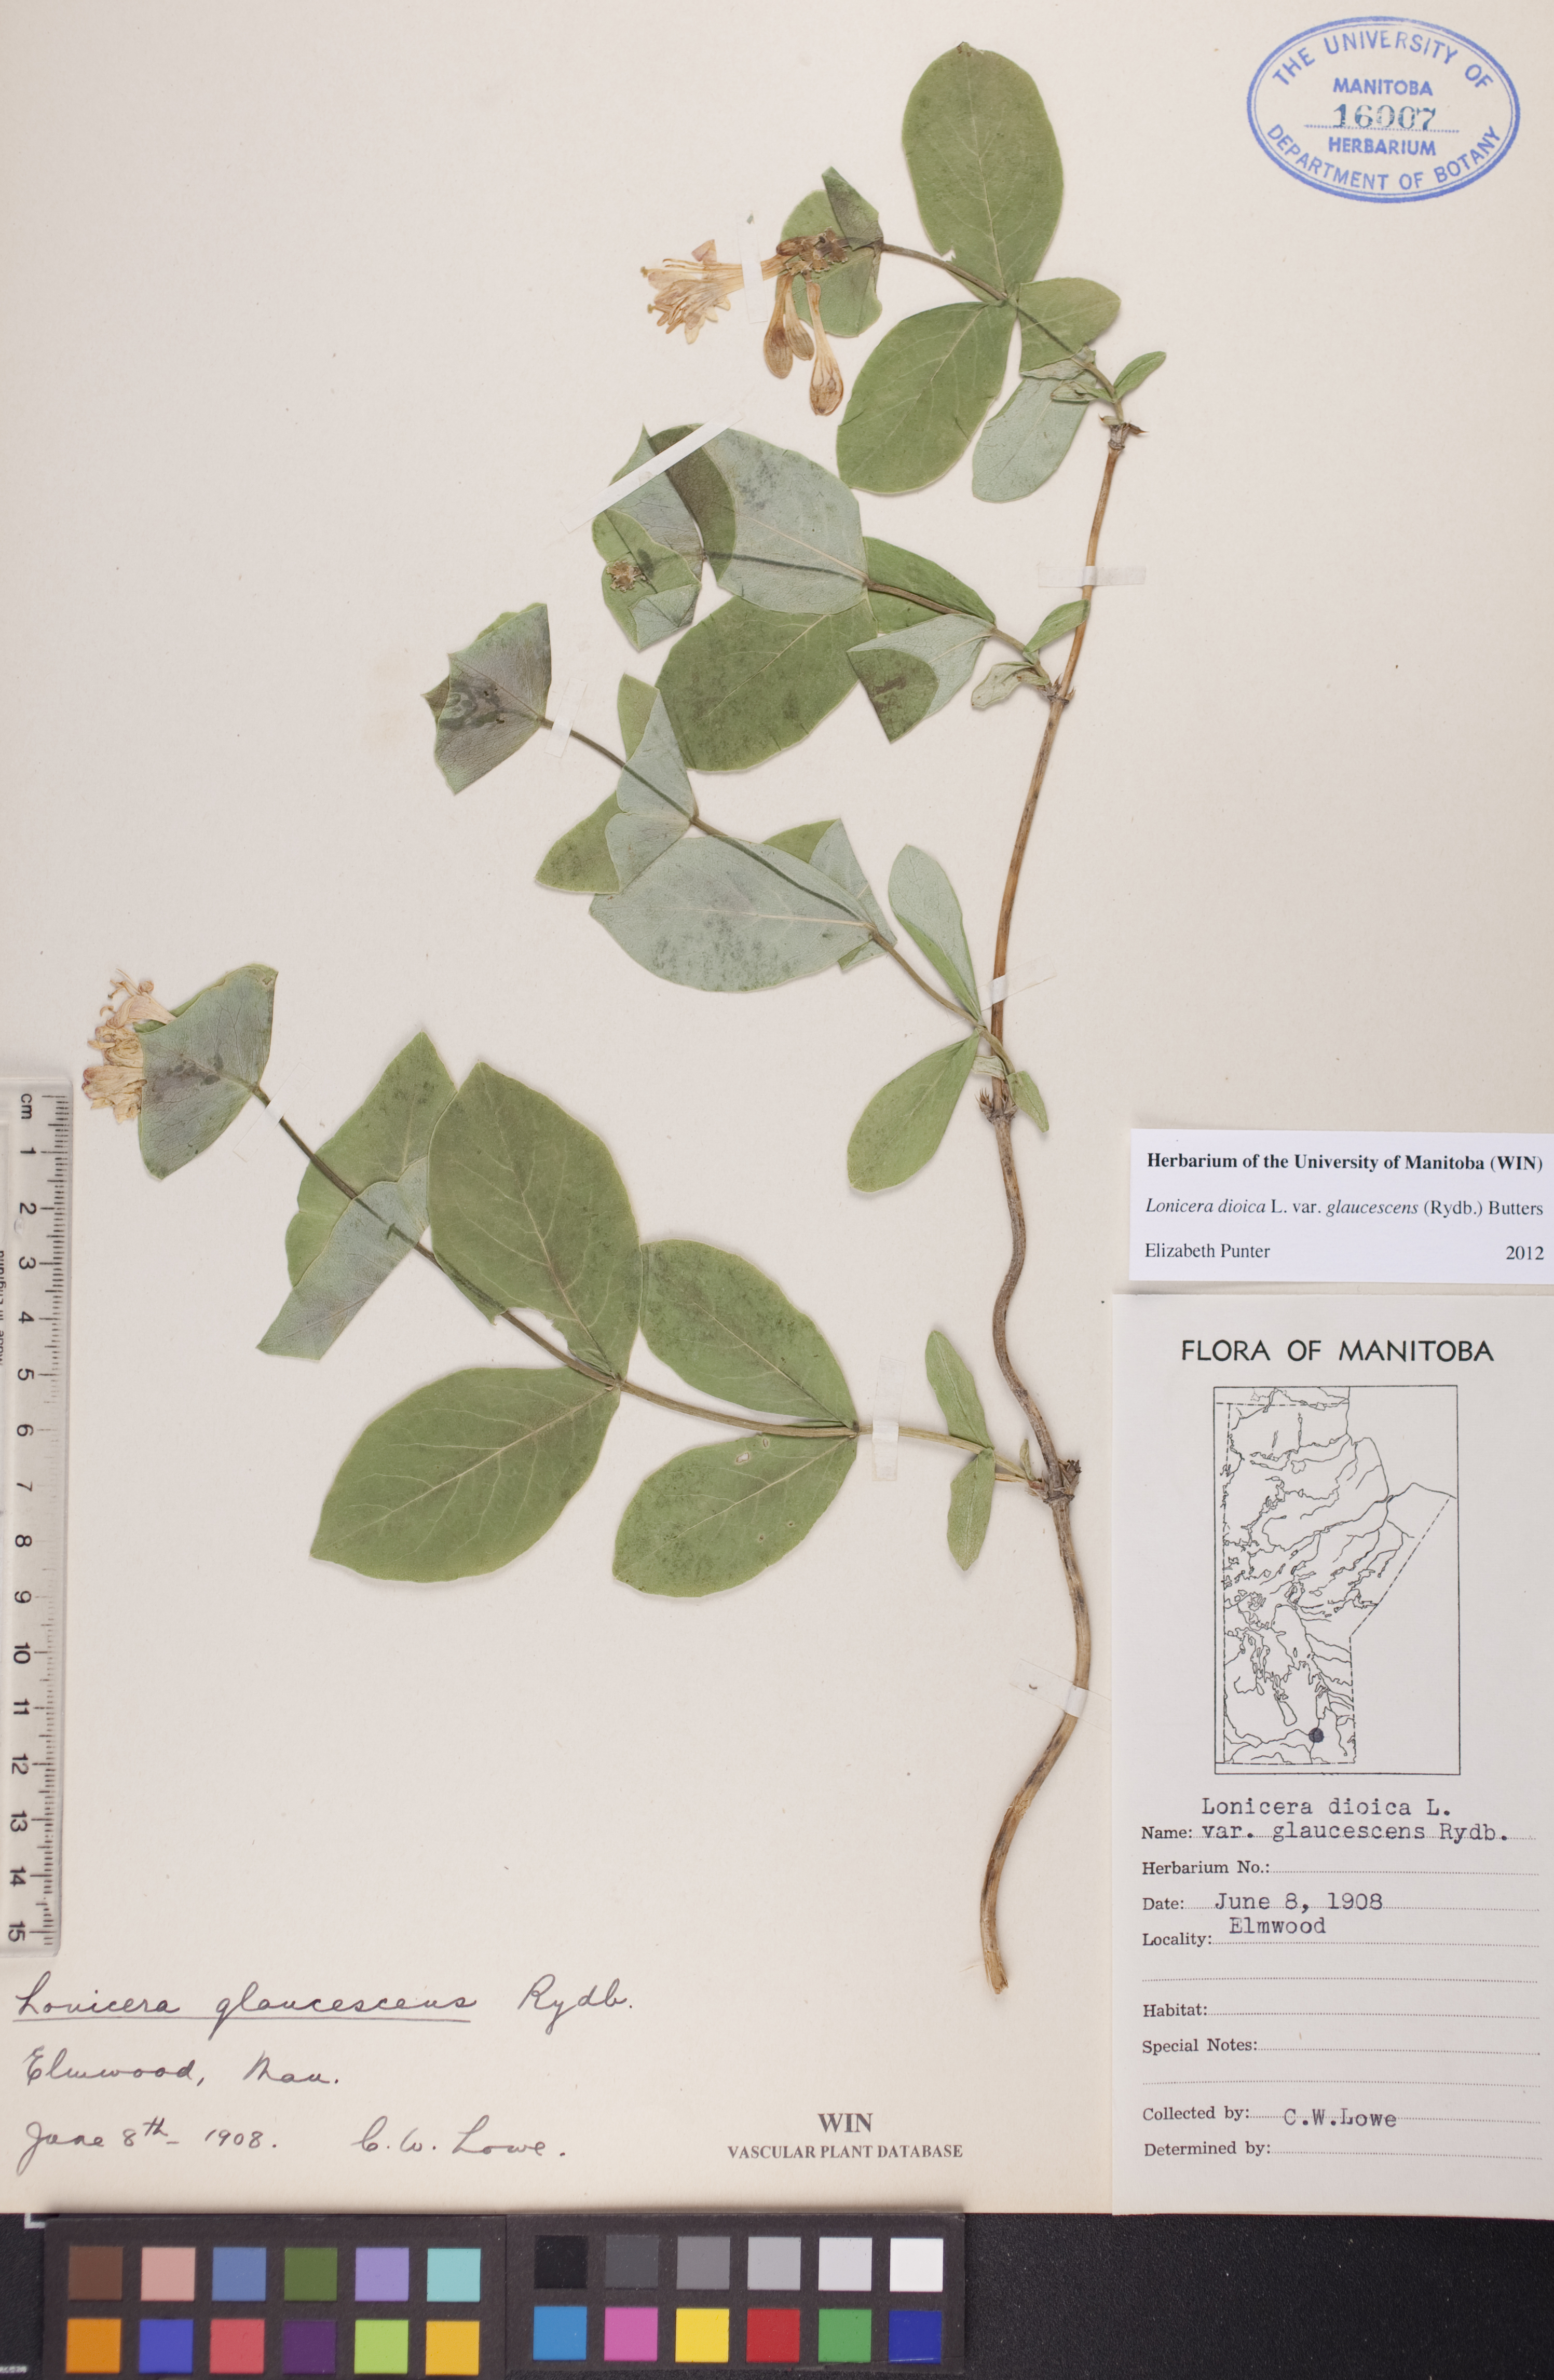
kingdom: Plantae
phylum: Tracheophyta
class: Magnoliopsida
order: Dipsacales
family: Caprifoliaceae
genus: Lonicera
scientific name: Lonicera dioica
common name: Limber honeysuckle
